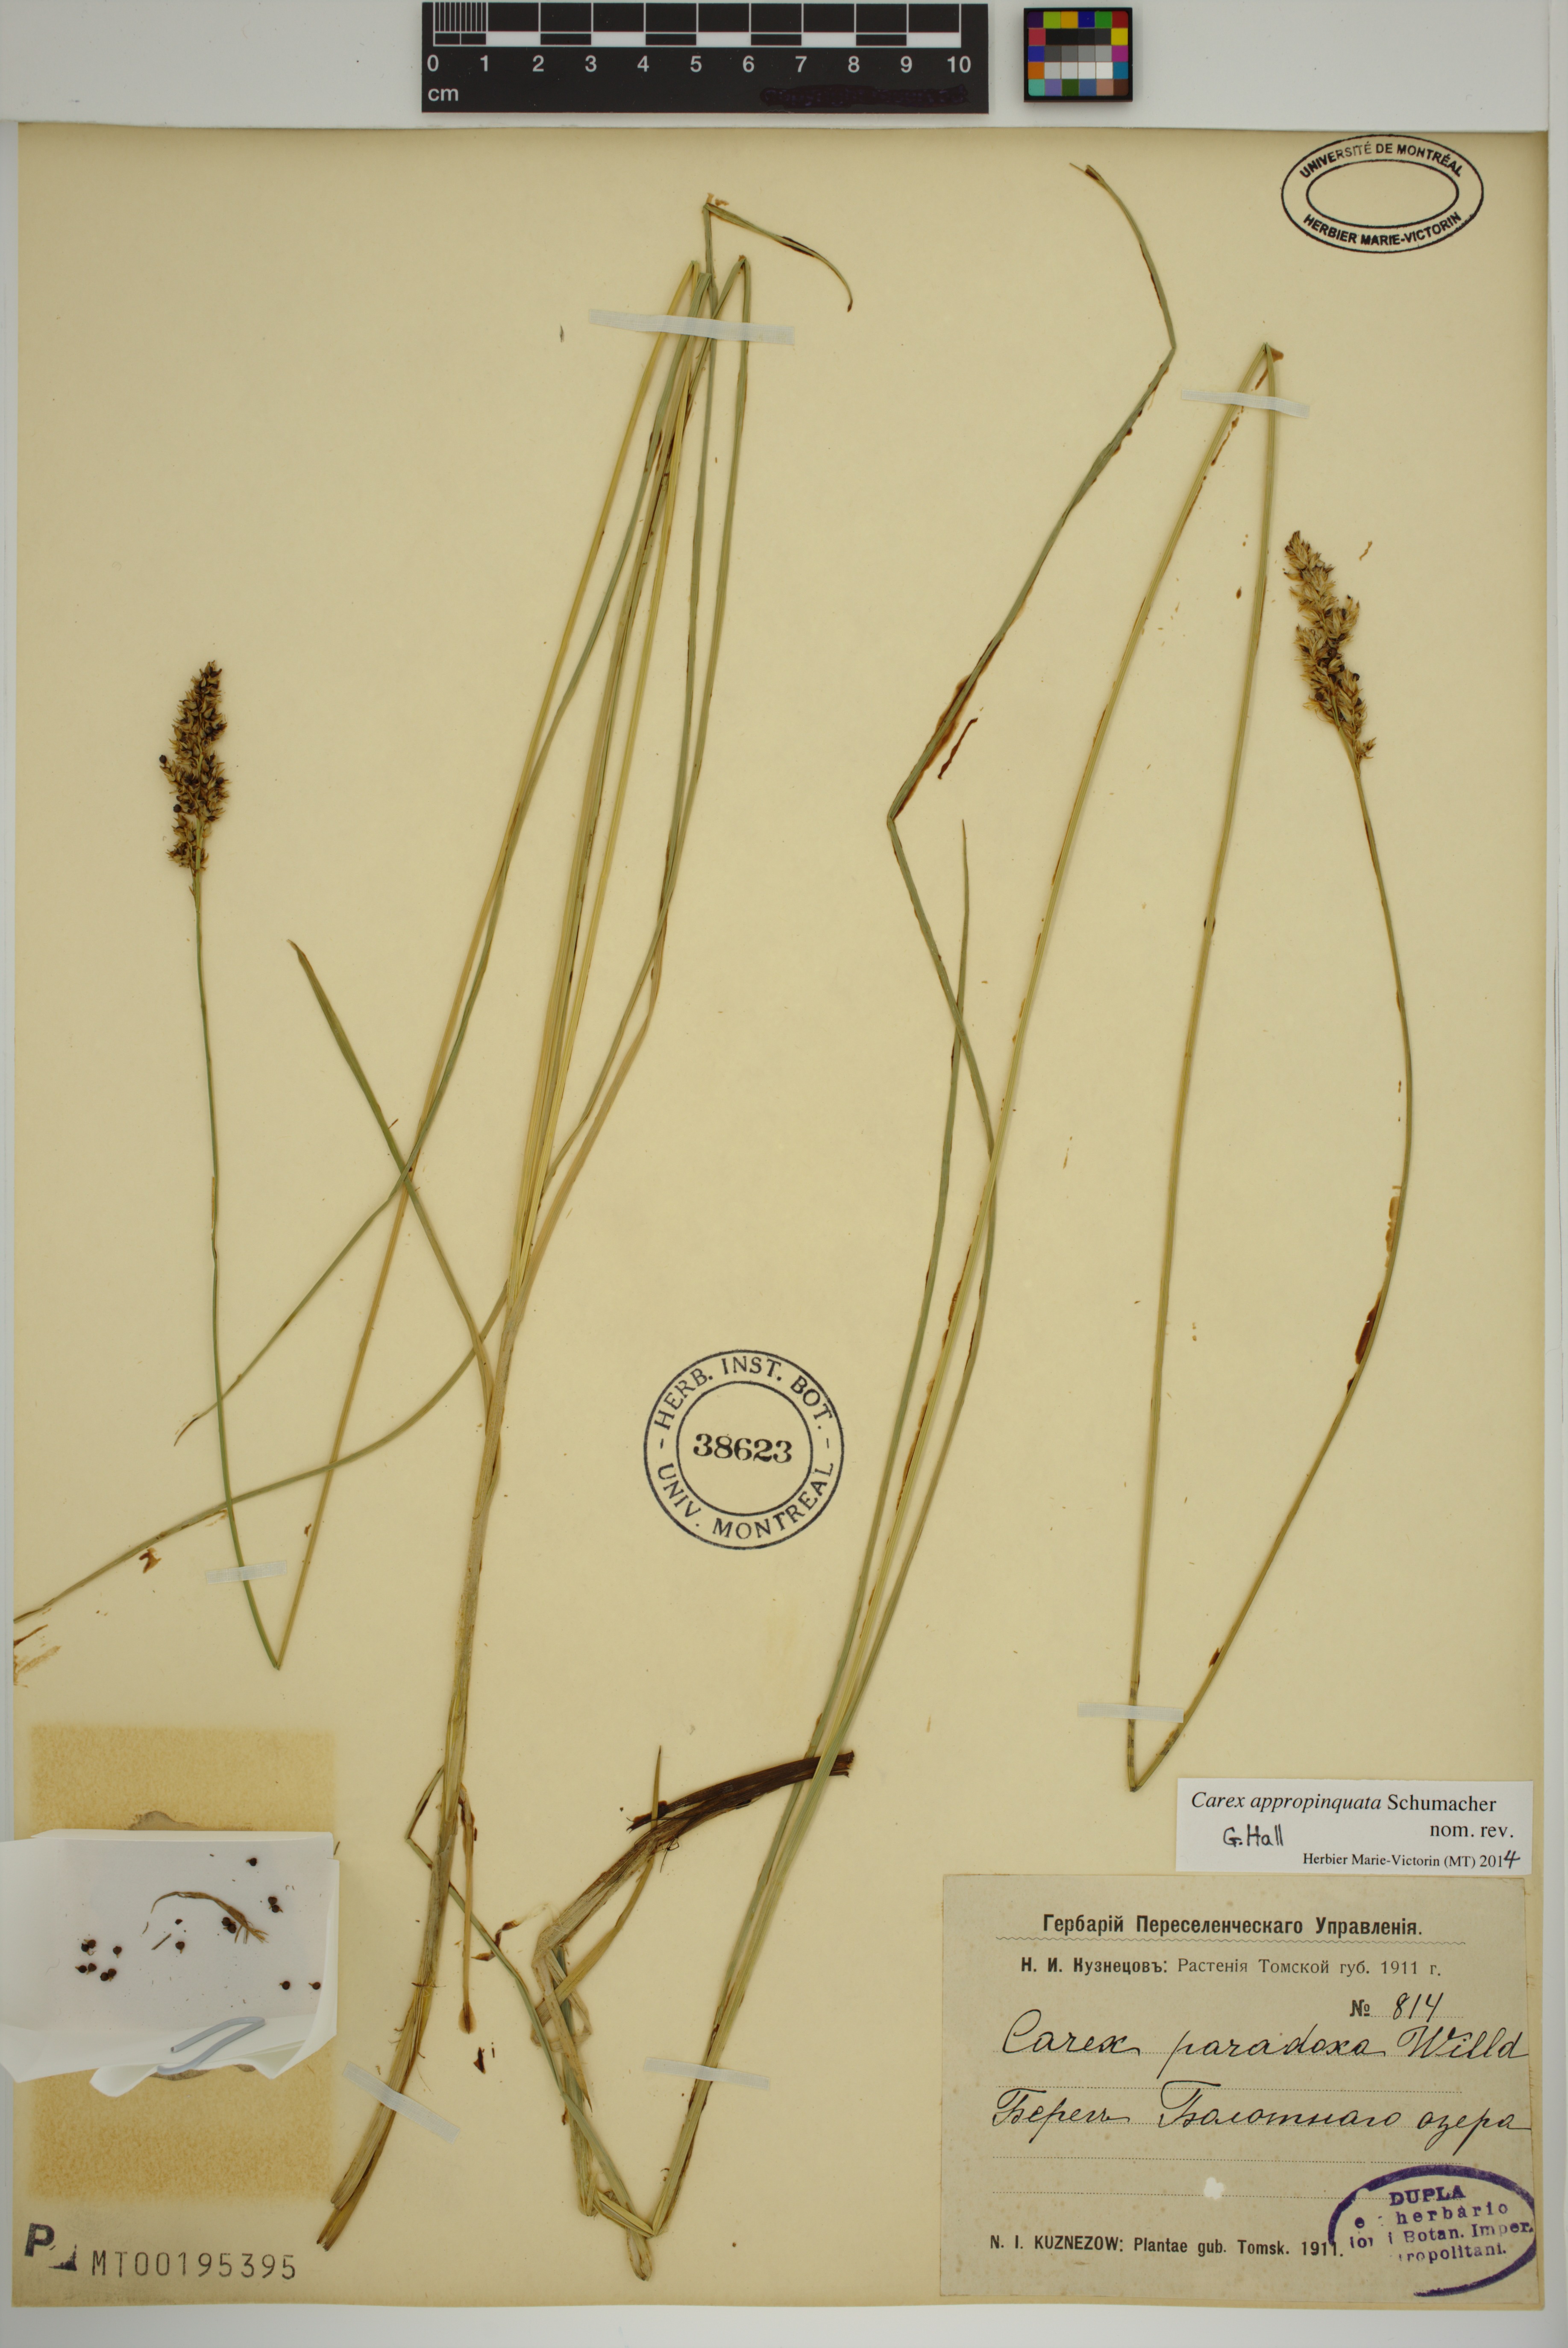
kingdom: Plantae
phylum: Tracheophyta
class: Liliopsida
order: Poales
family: Cyperaceae
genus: Carex
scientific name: Carex appropinquata
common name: Fibrous tussock-sedge
